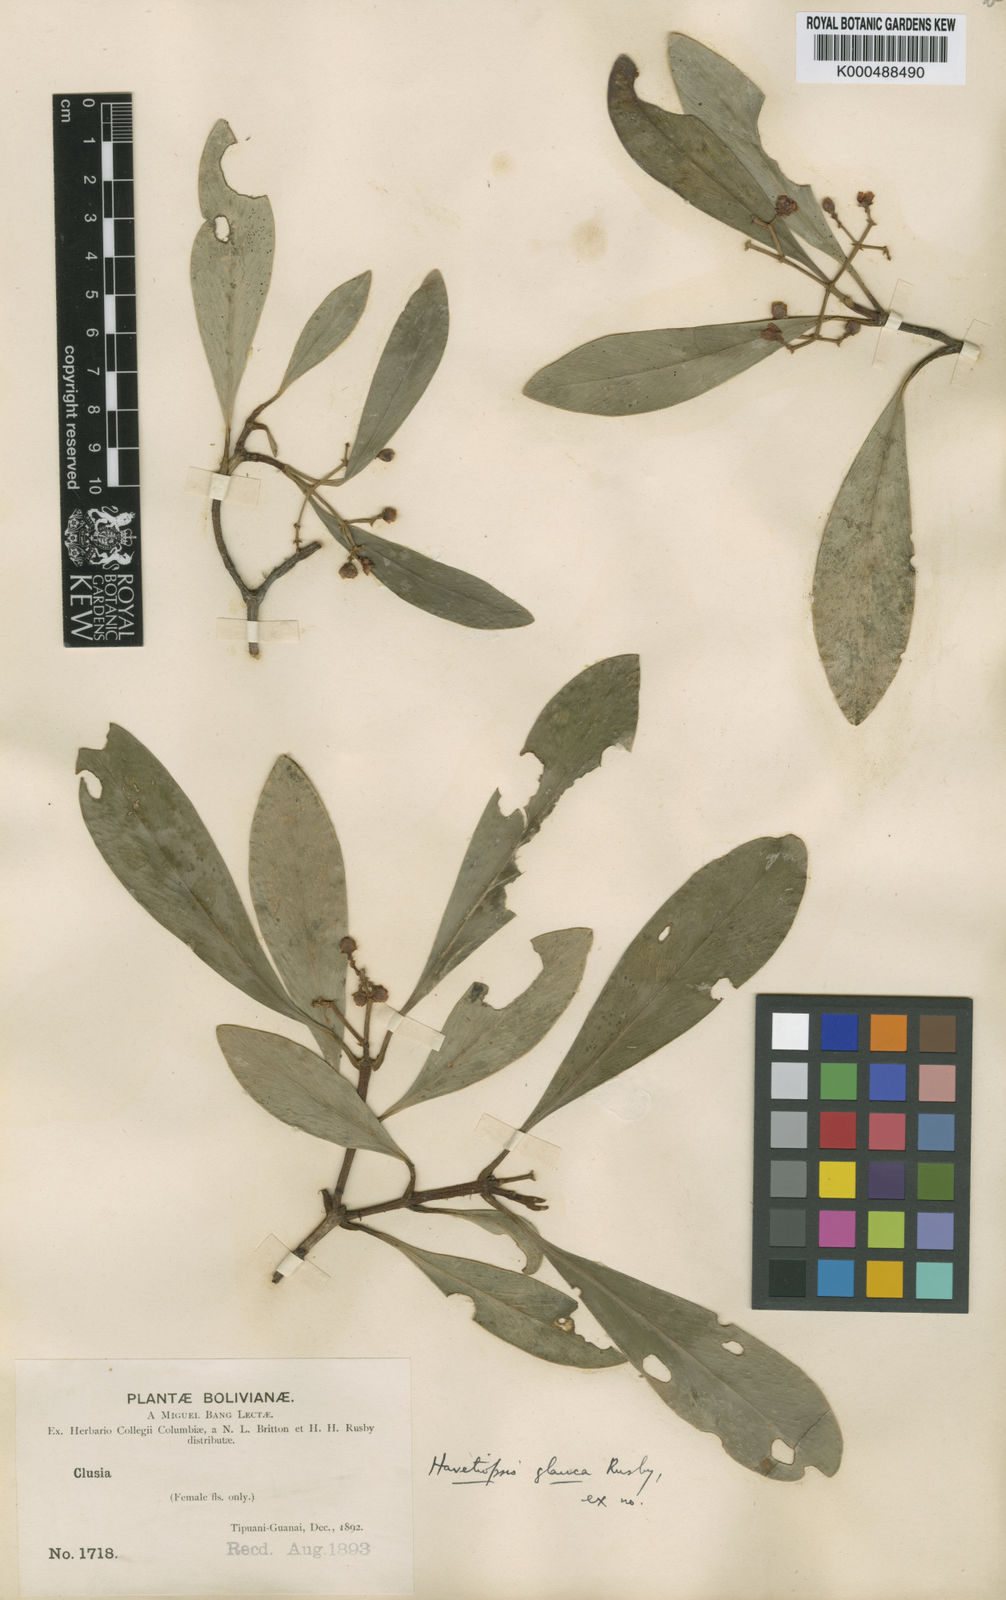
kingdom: Plantae
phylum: Tracheophyta
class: Magnoliopsida
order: Malpighiales
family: Clusiaceae
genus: Clusia
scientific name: Clusia
